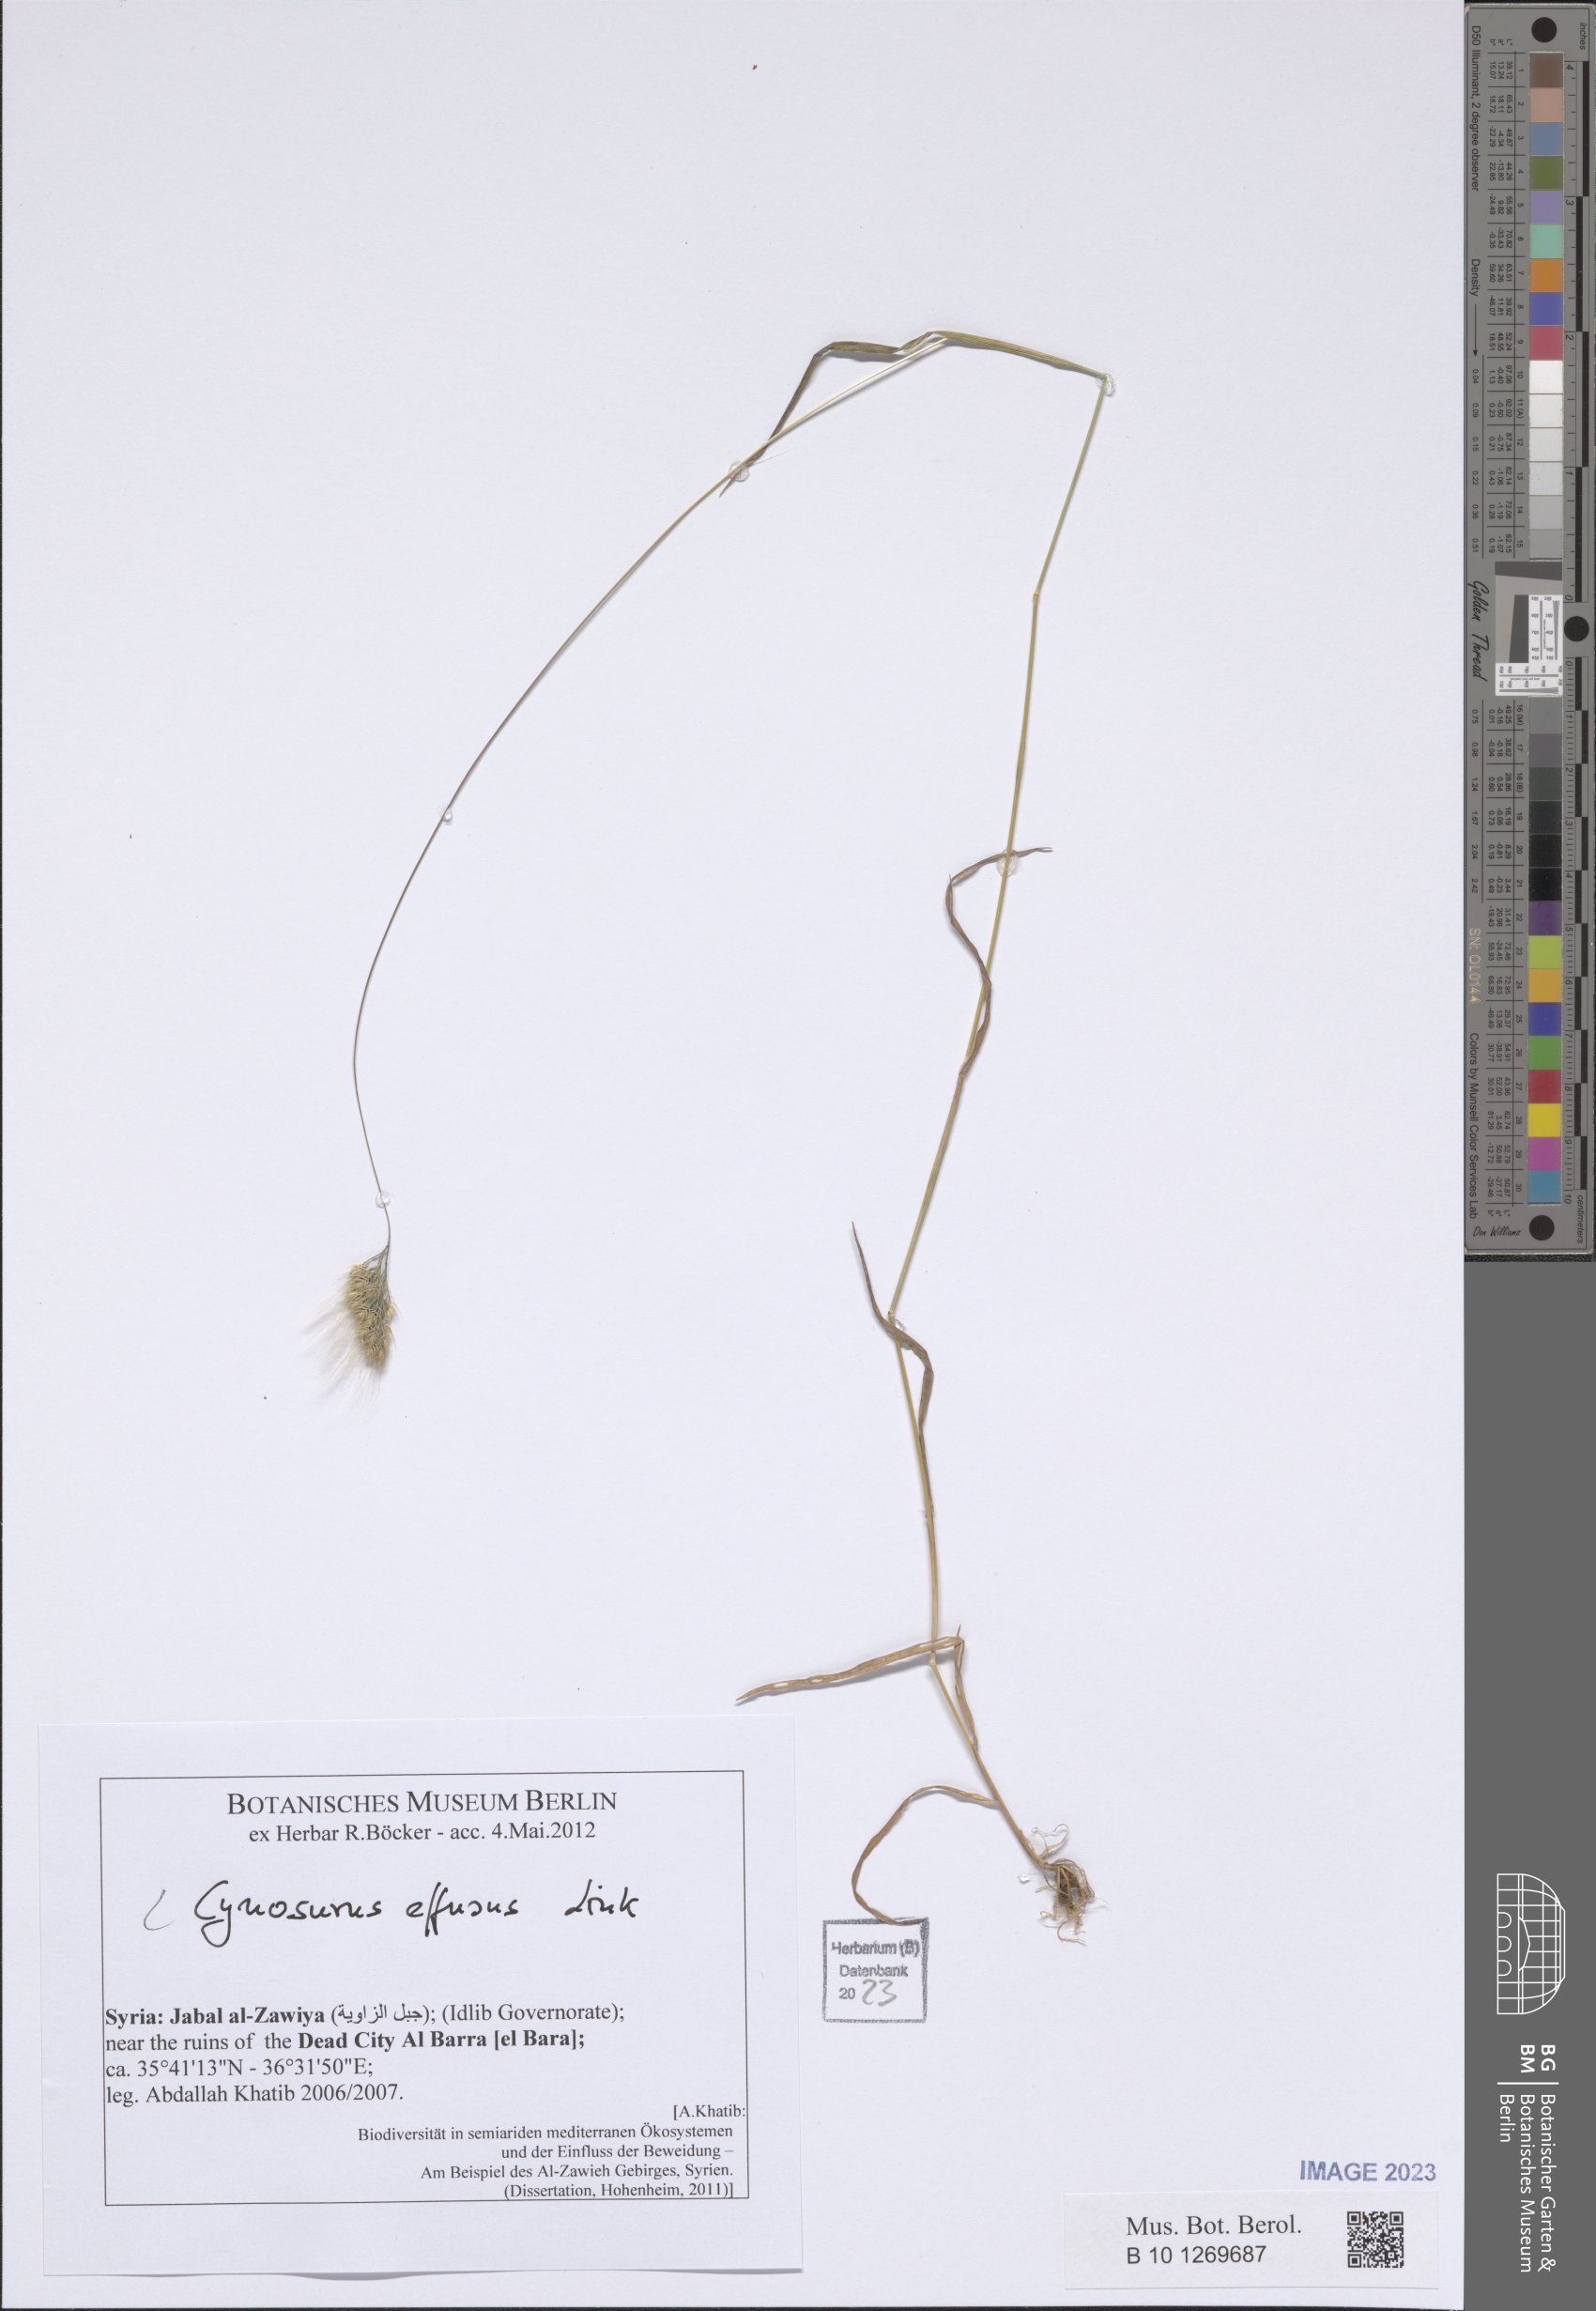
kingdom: Plantae
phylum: Tracheophyta
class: Liliopsida
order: Poales
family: Poaceae
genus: Cynosurus
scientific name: Cynosurus effusus
